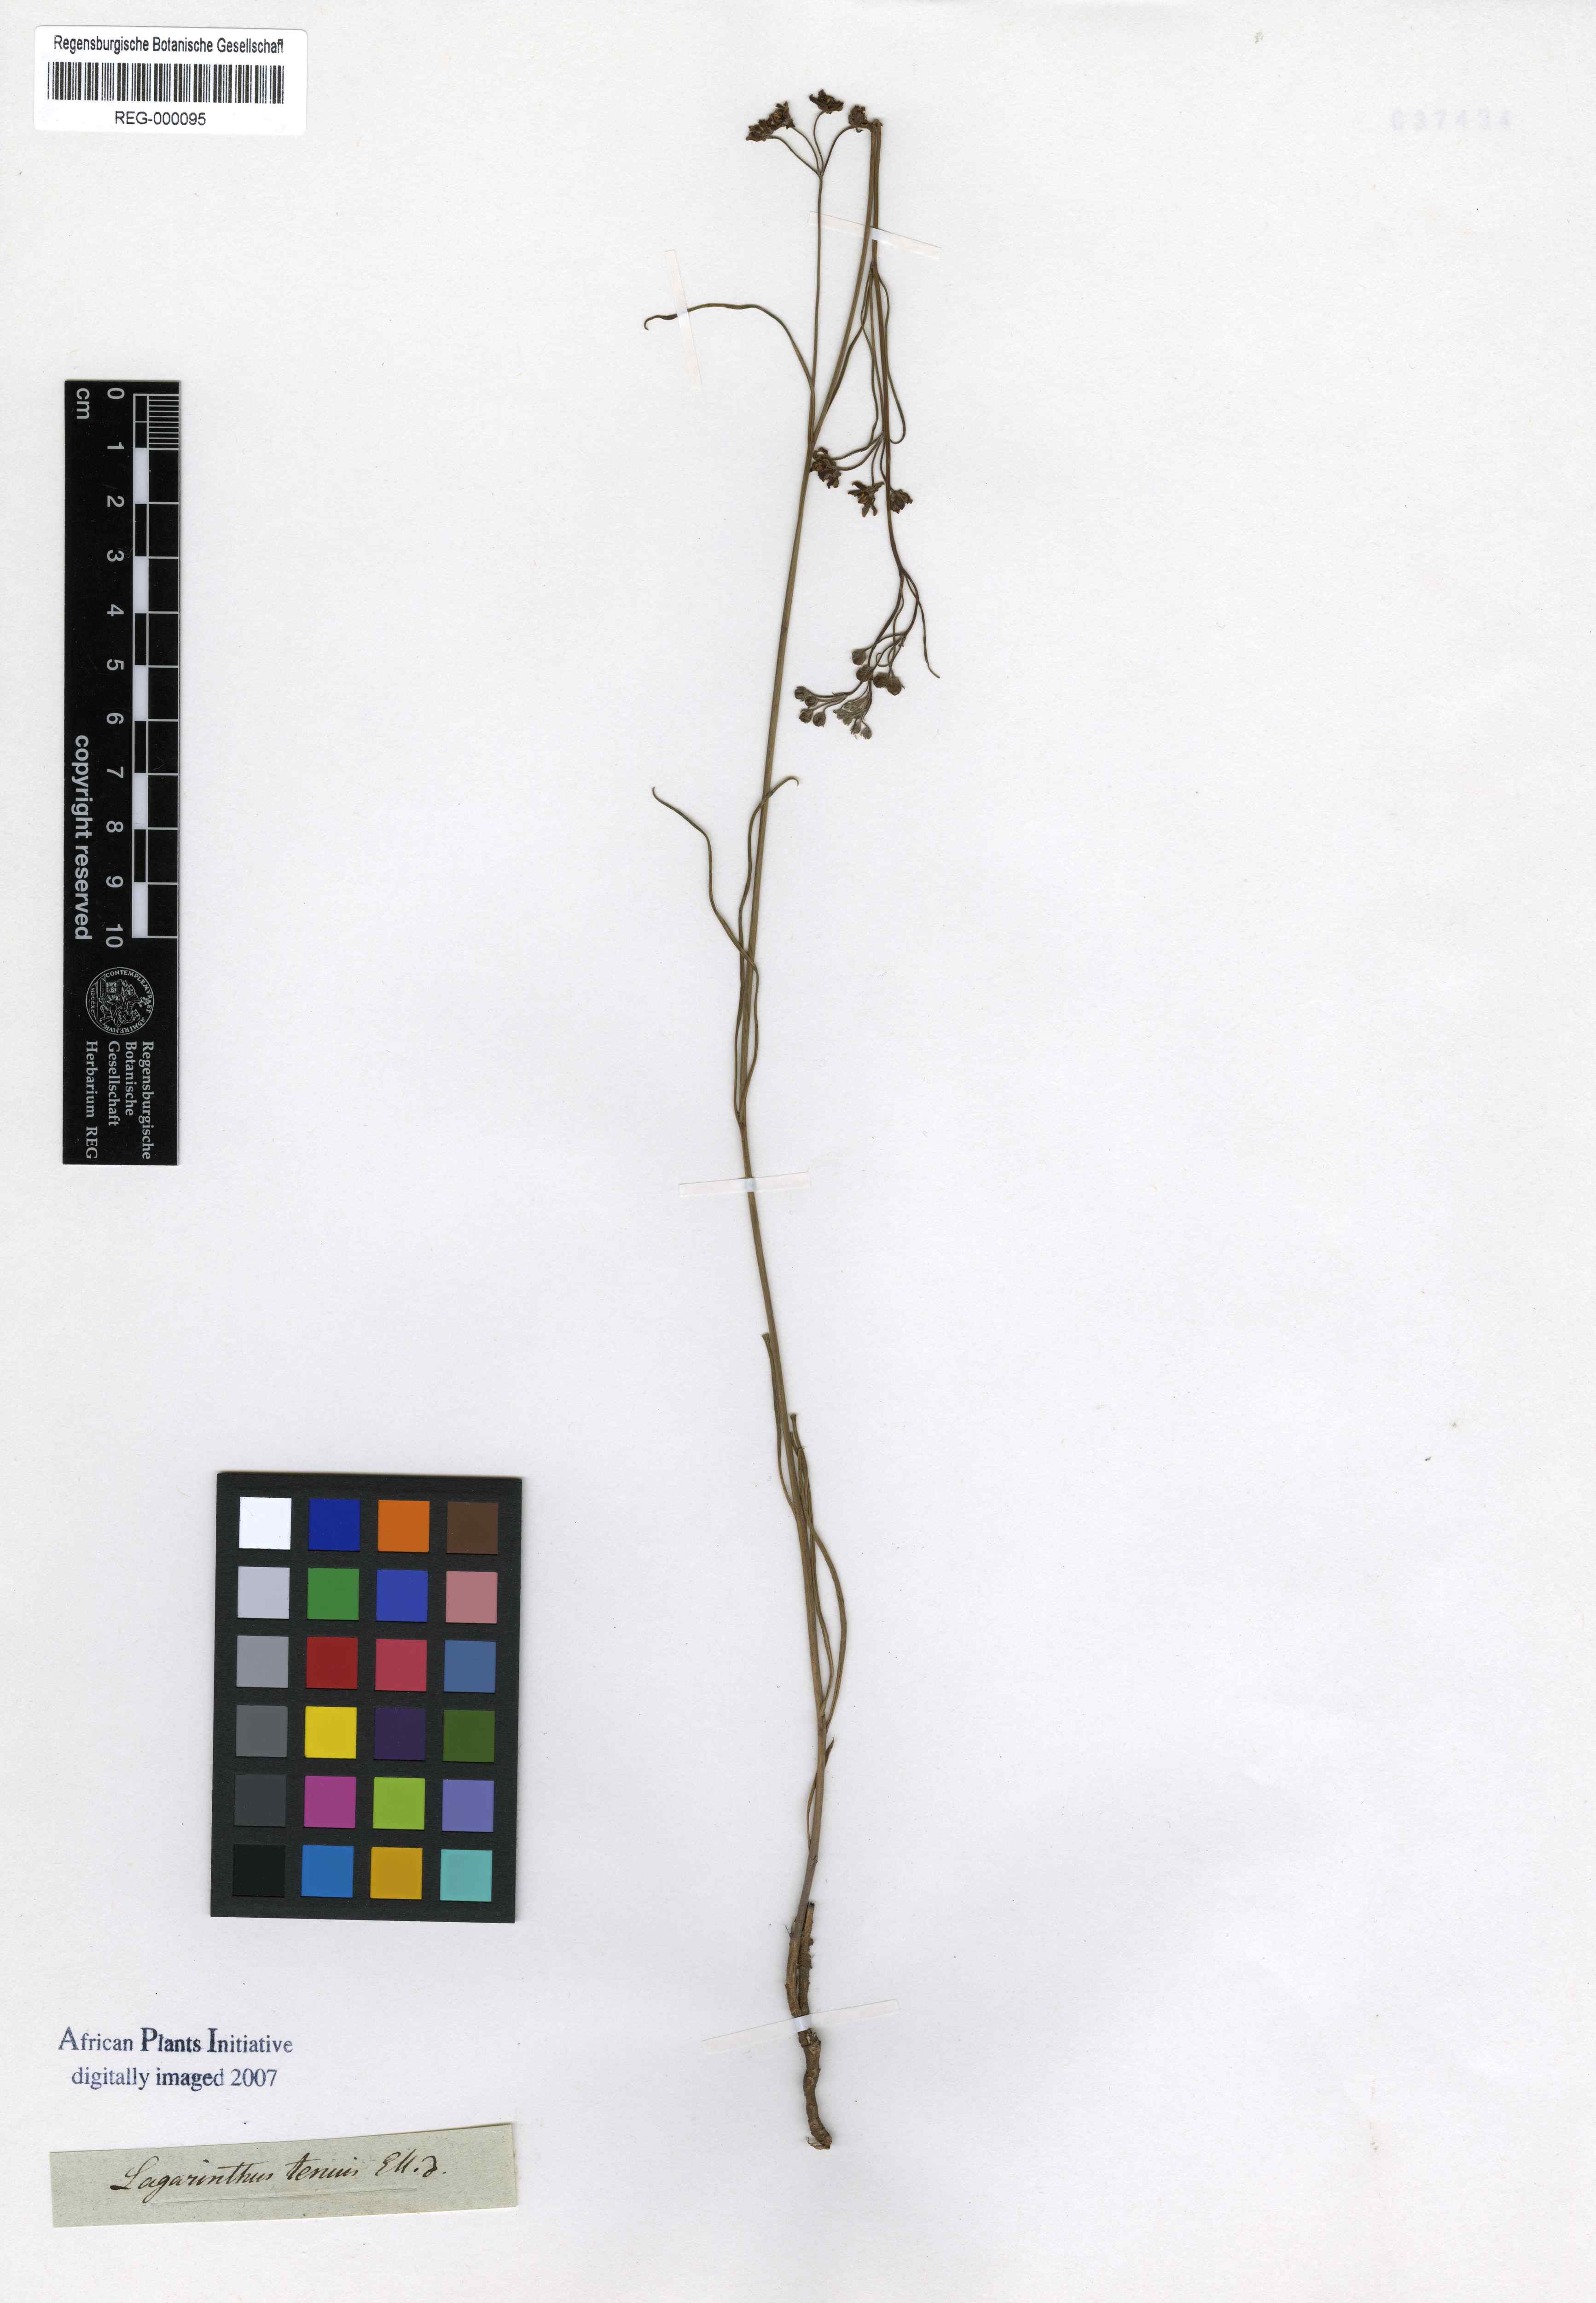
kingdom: Plantae
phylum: Tracheophyta
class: Magnoliopsida
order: Gentianales
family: Apocynaceae
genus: Schizoglossum
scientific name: Schizoglossum linifolium
